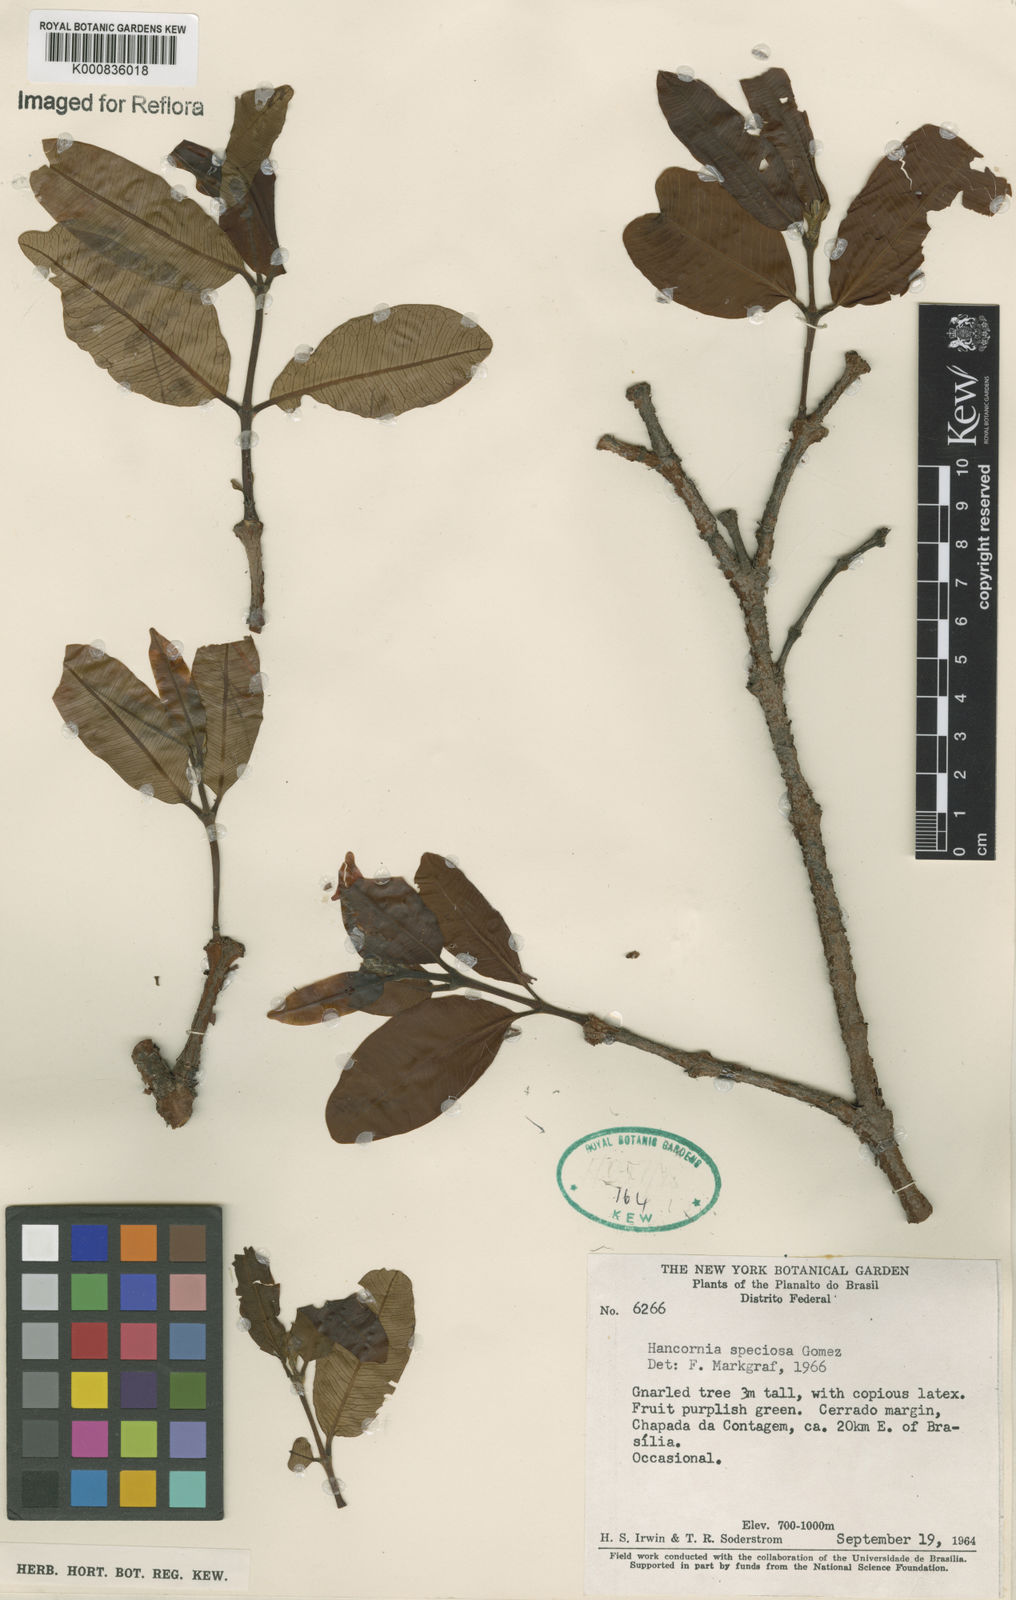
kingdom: Plantae
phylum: Tracheophyta
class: Magnoliopsida
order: Gentianales
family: Apocynaceae
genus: Hancornia
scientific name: Hancornia speciosa
